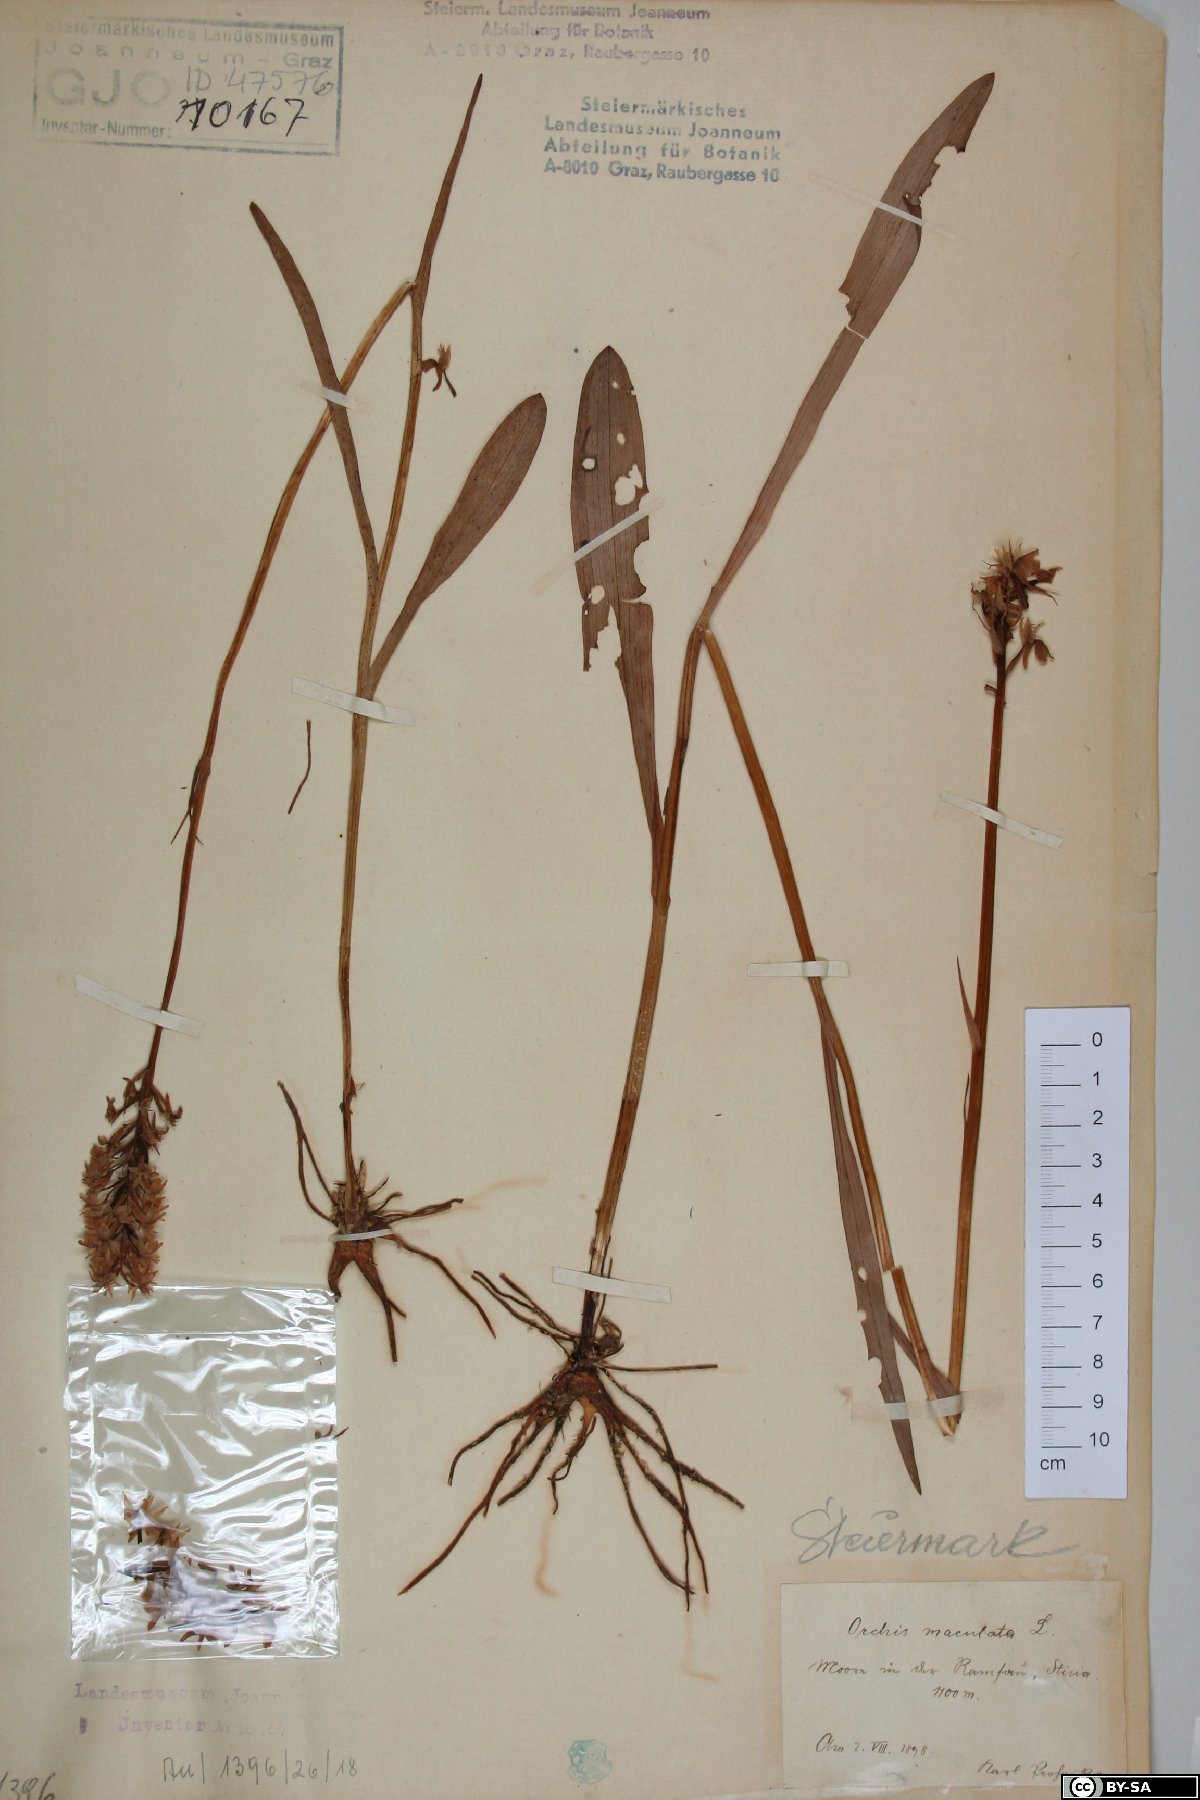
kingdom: Plantae
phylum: Tracheophyta
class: Liliopsida
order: Asparagales
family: Orchidaceae
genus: Dactylorhiza
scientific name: Dactylorhiza maculata
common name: Heath spotted-orchid
